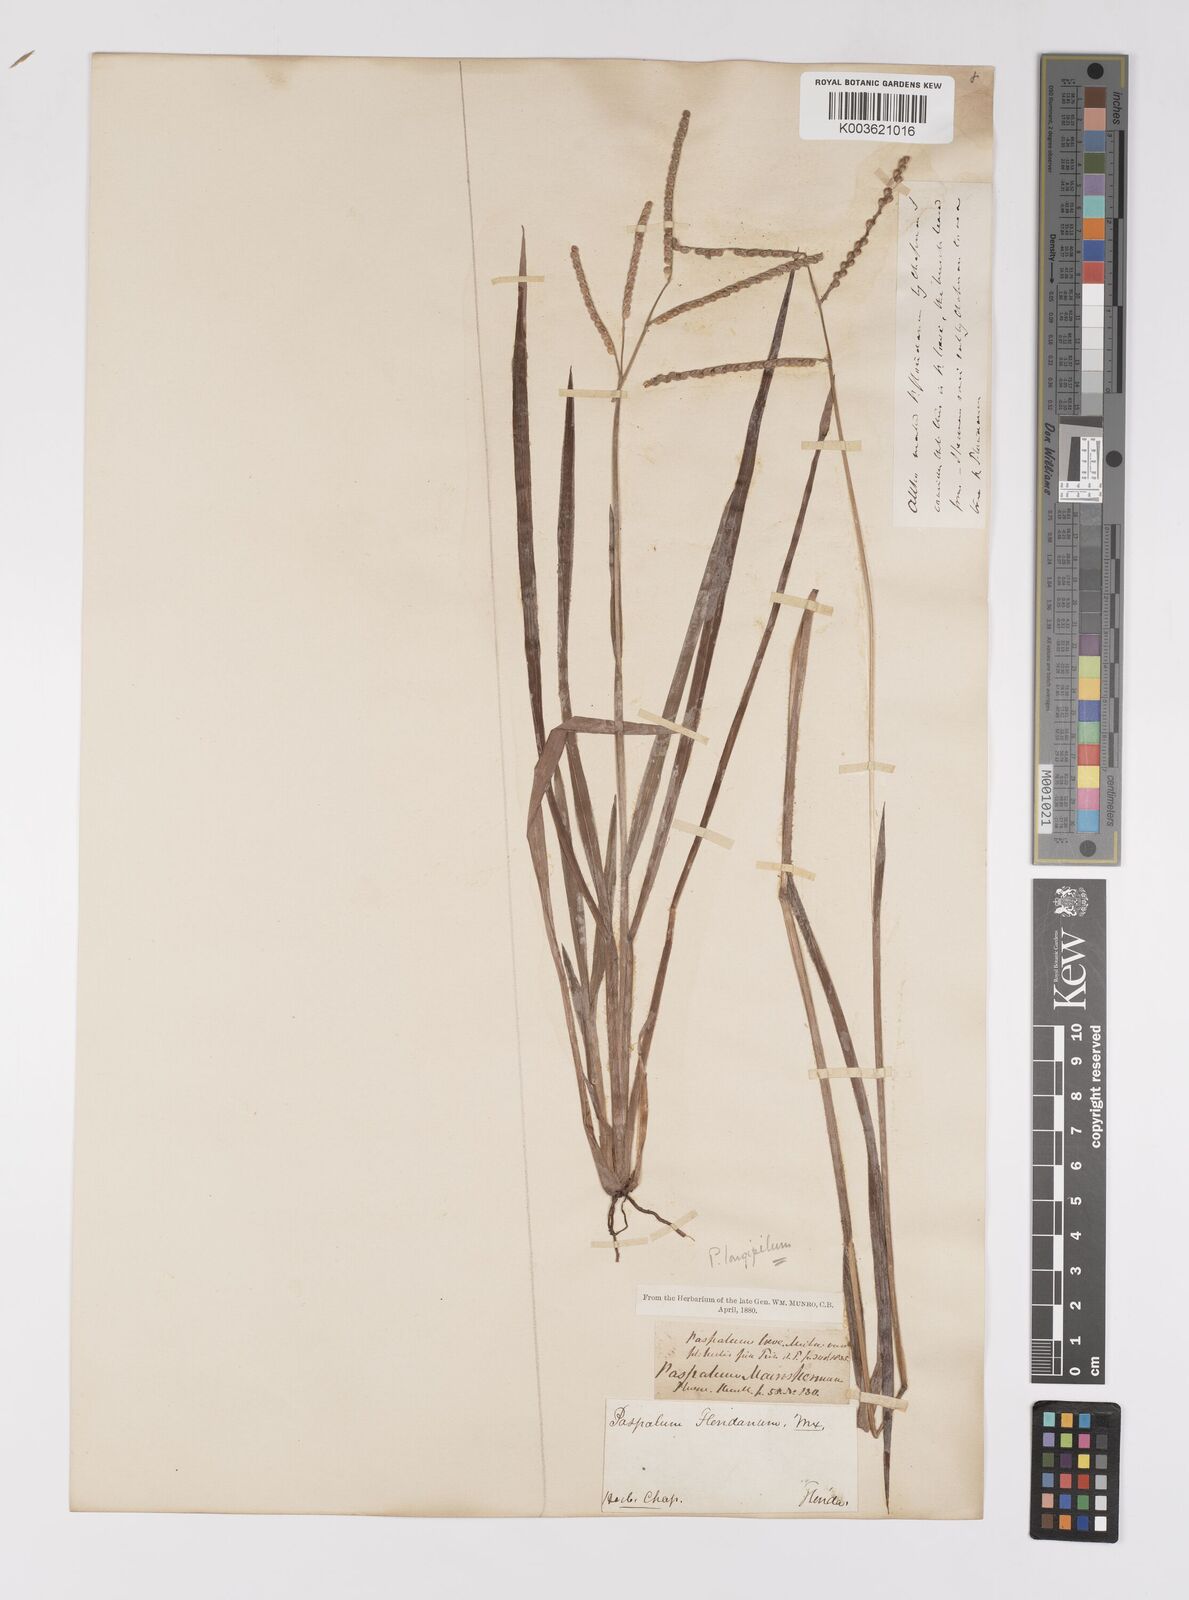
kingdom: Plantae
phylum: Tracheophyta
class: Liliopsida
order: Poales
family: Poaceae
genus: Paspalum
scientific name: Paspalum laeve
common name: Field paspalum
